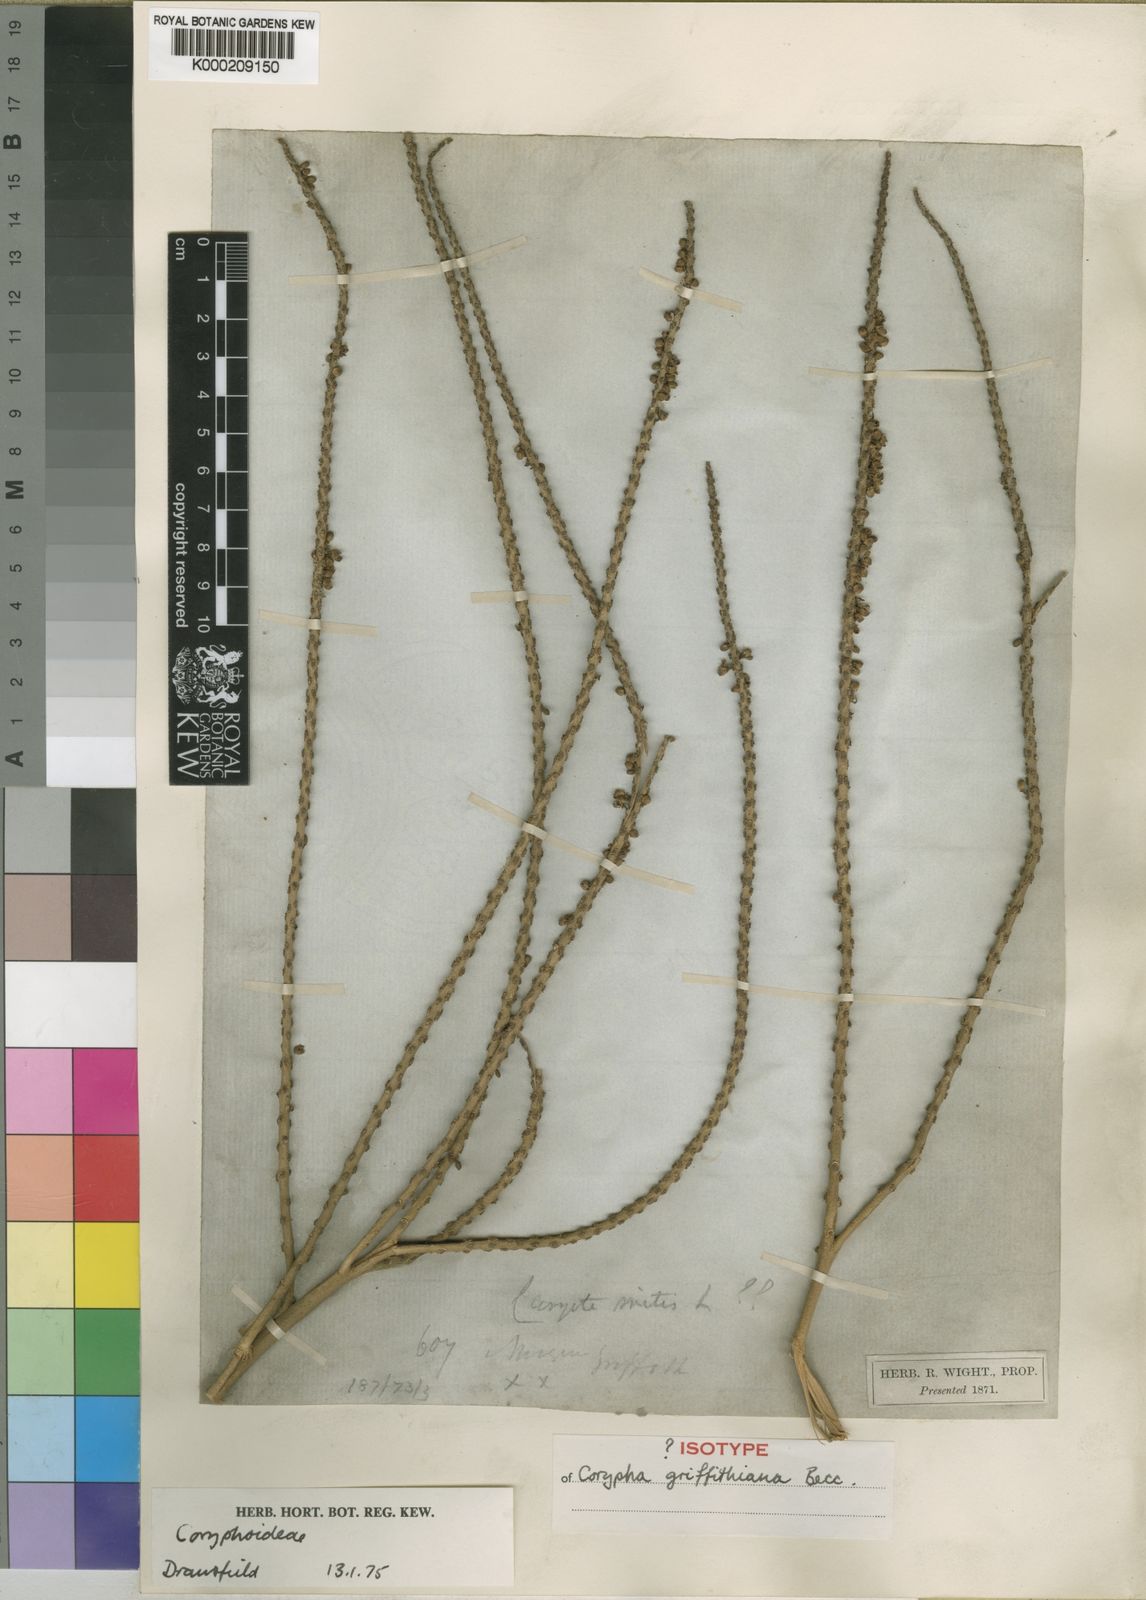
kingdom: Plantae
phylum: Tracheophyta
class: Liliopsida
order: Arecales
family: Arecaceae
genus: Corypha
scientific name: Corypha utan
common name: Buri palm
